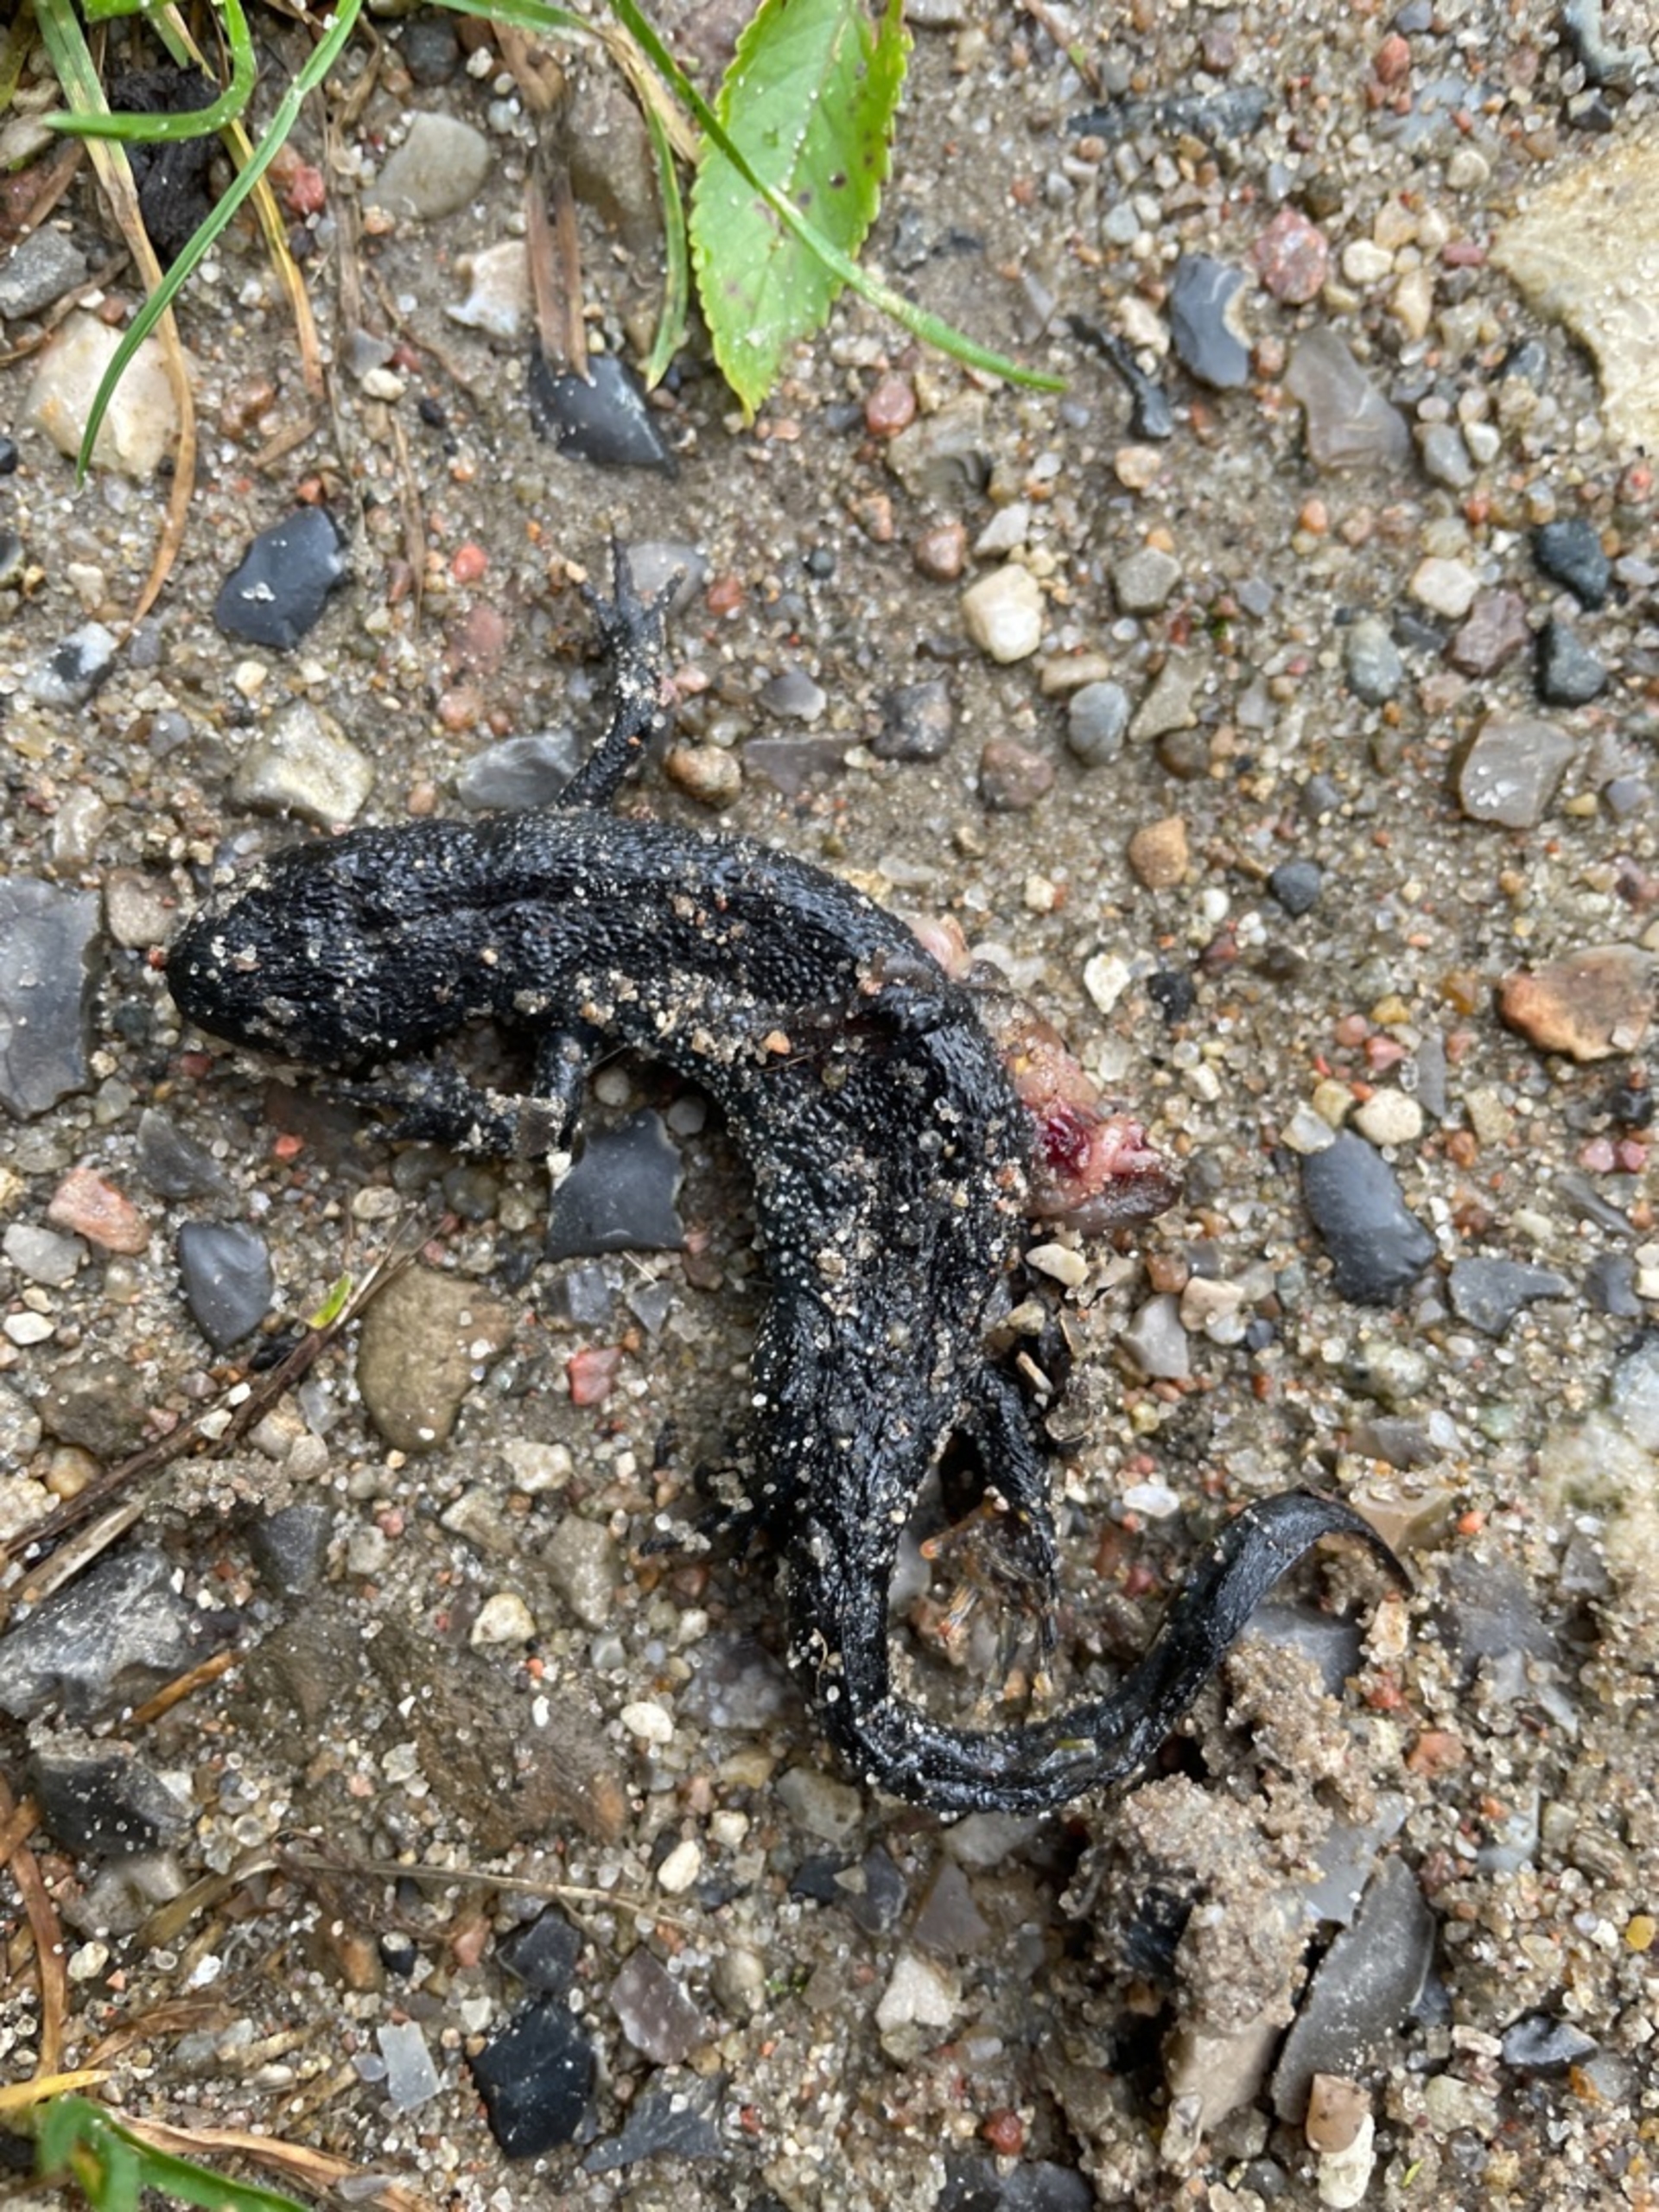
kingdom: Animalia
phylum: Chordata
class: Amphibia
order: Caudata
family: Salamandridae
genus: Triturus
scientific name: Triturus cristatus
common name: Stor vandsalamander
